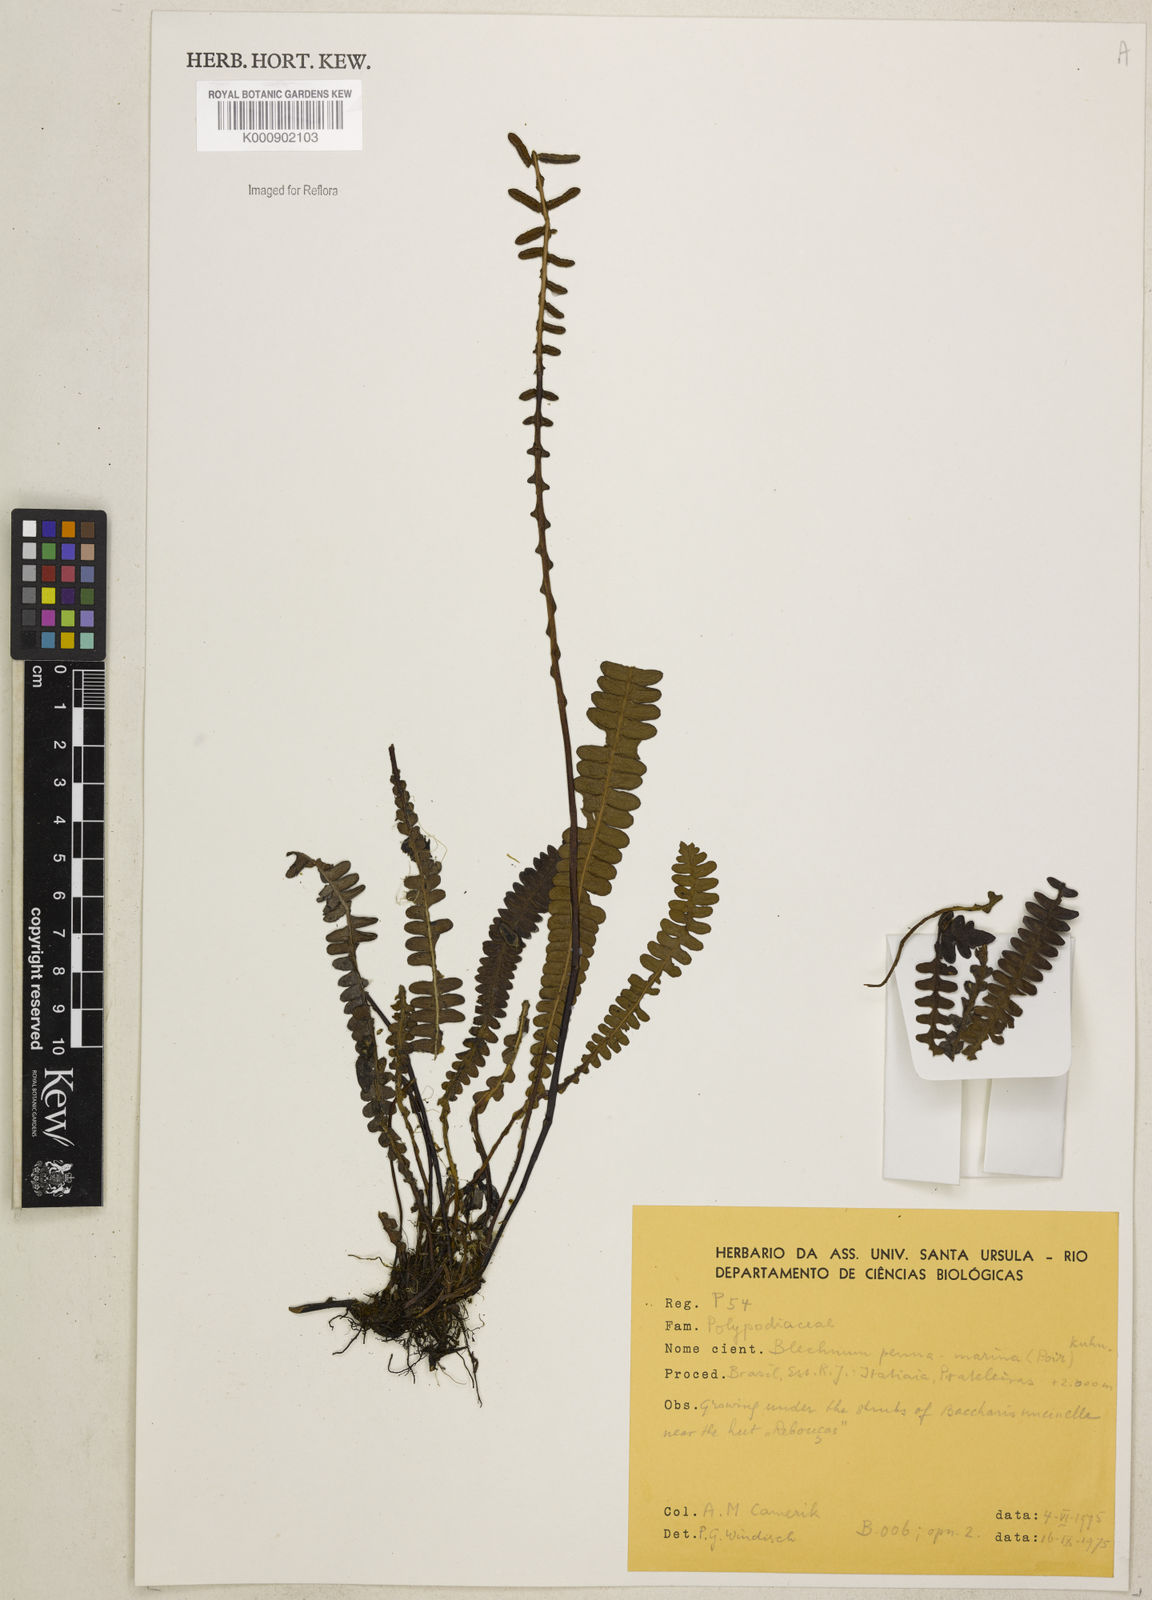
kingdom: Plantae
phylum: Tracheophyta
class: Polypodiopsida
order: Polypodiales
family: Blechnaceae
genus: Austroblechnum
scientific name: Austroblechnum penna-marina
